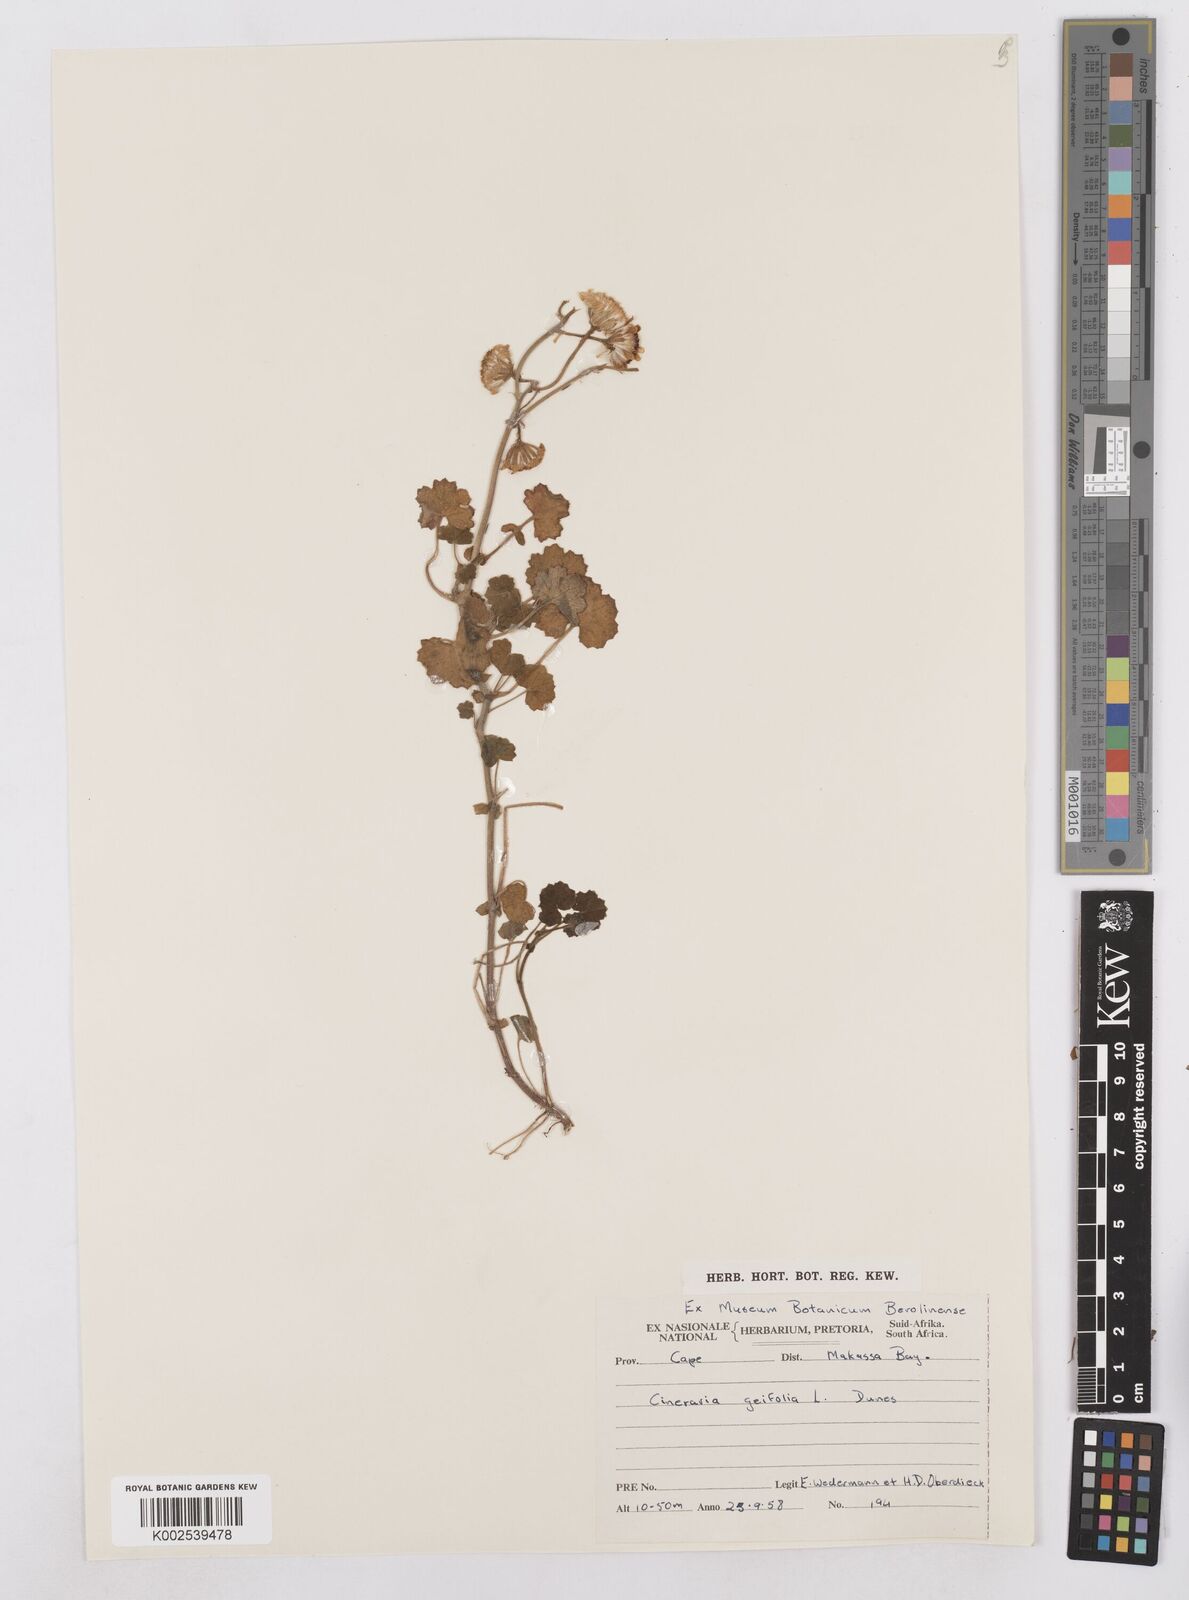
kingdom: Plantae
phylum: Tracheophyta
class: Magnoliopsida
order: Asterales
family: Asteraceae
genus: Cineraria
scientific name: Cineraria geifolia
